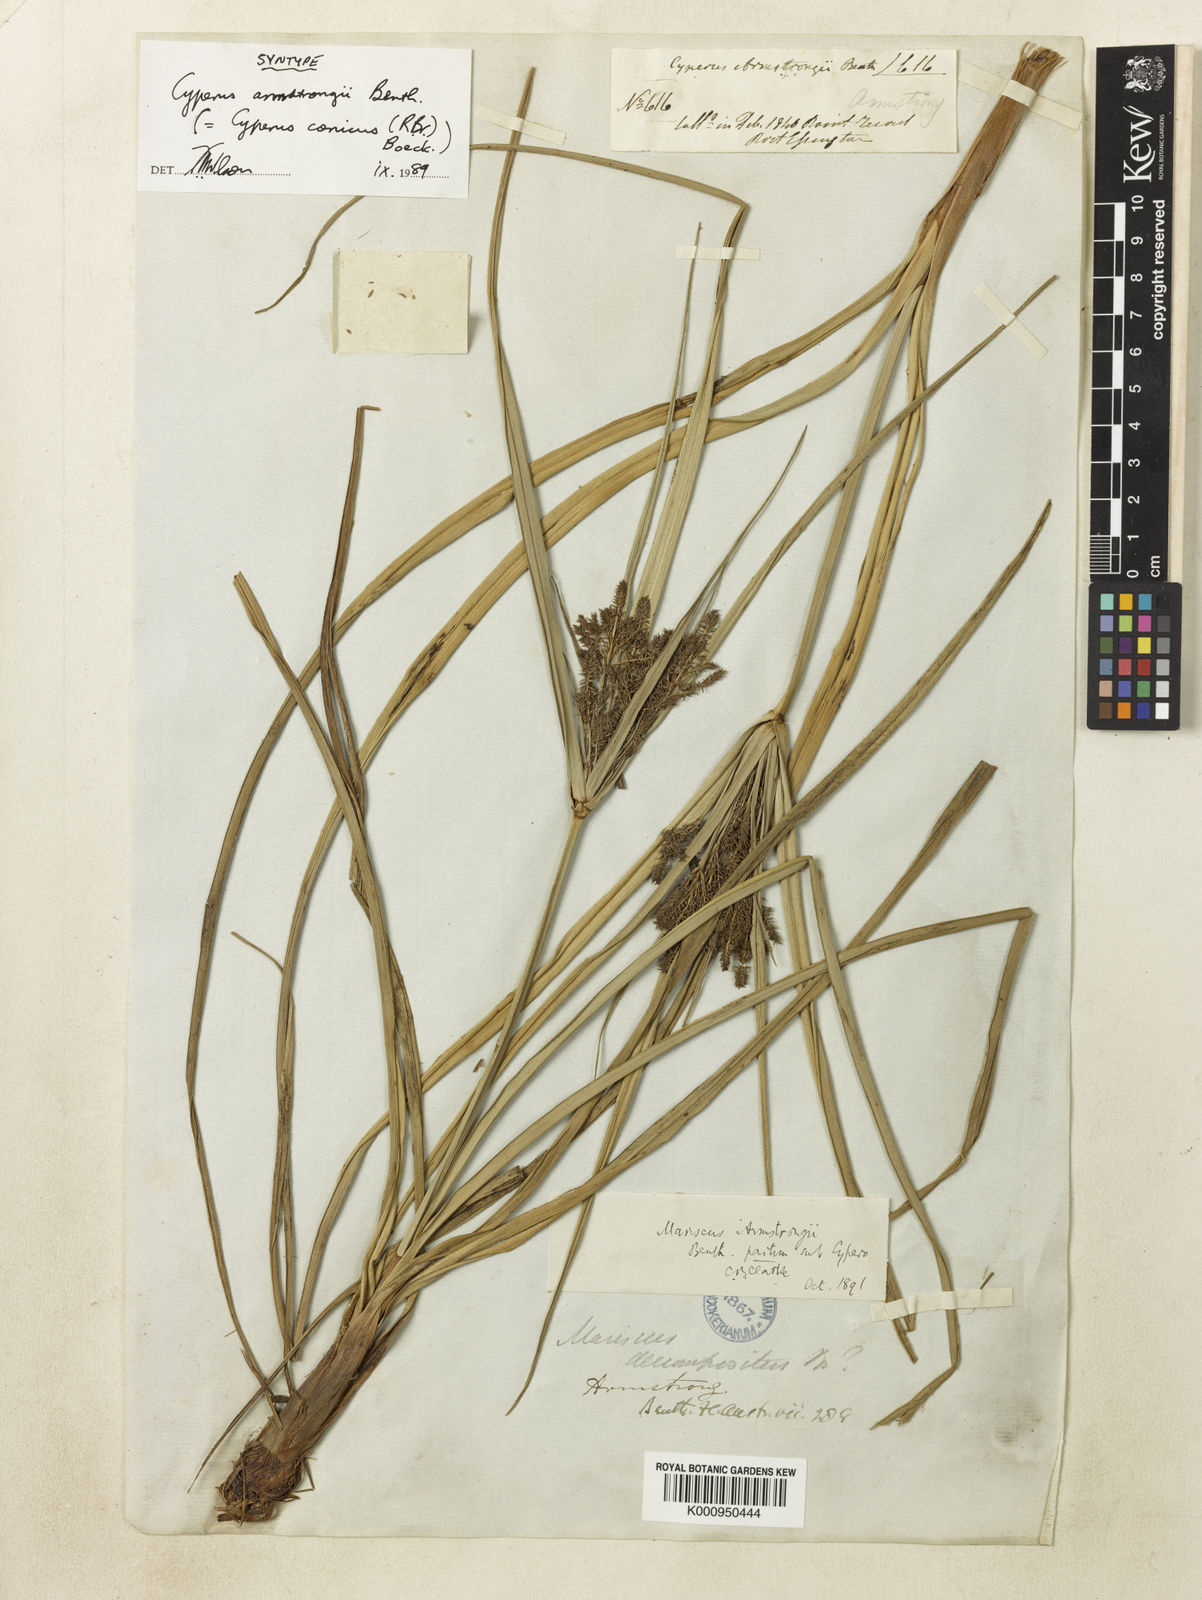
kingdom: Plantae
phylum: Tracheophyta
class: Liliopsida
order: Poales
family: Cyperaceae
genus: Cyperus
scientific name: Cyperus conicus
